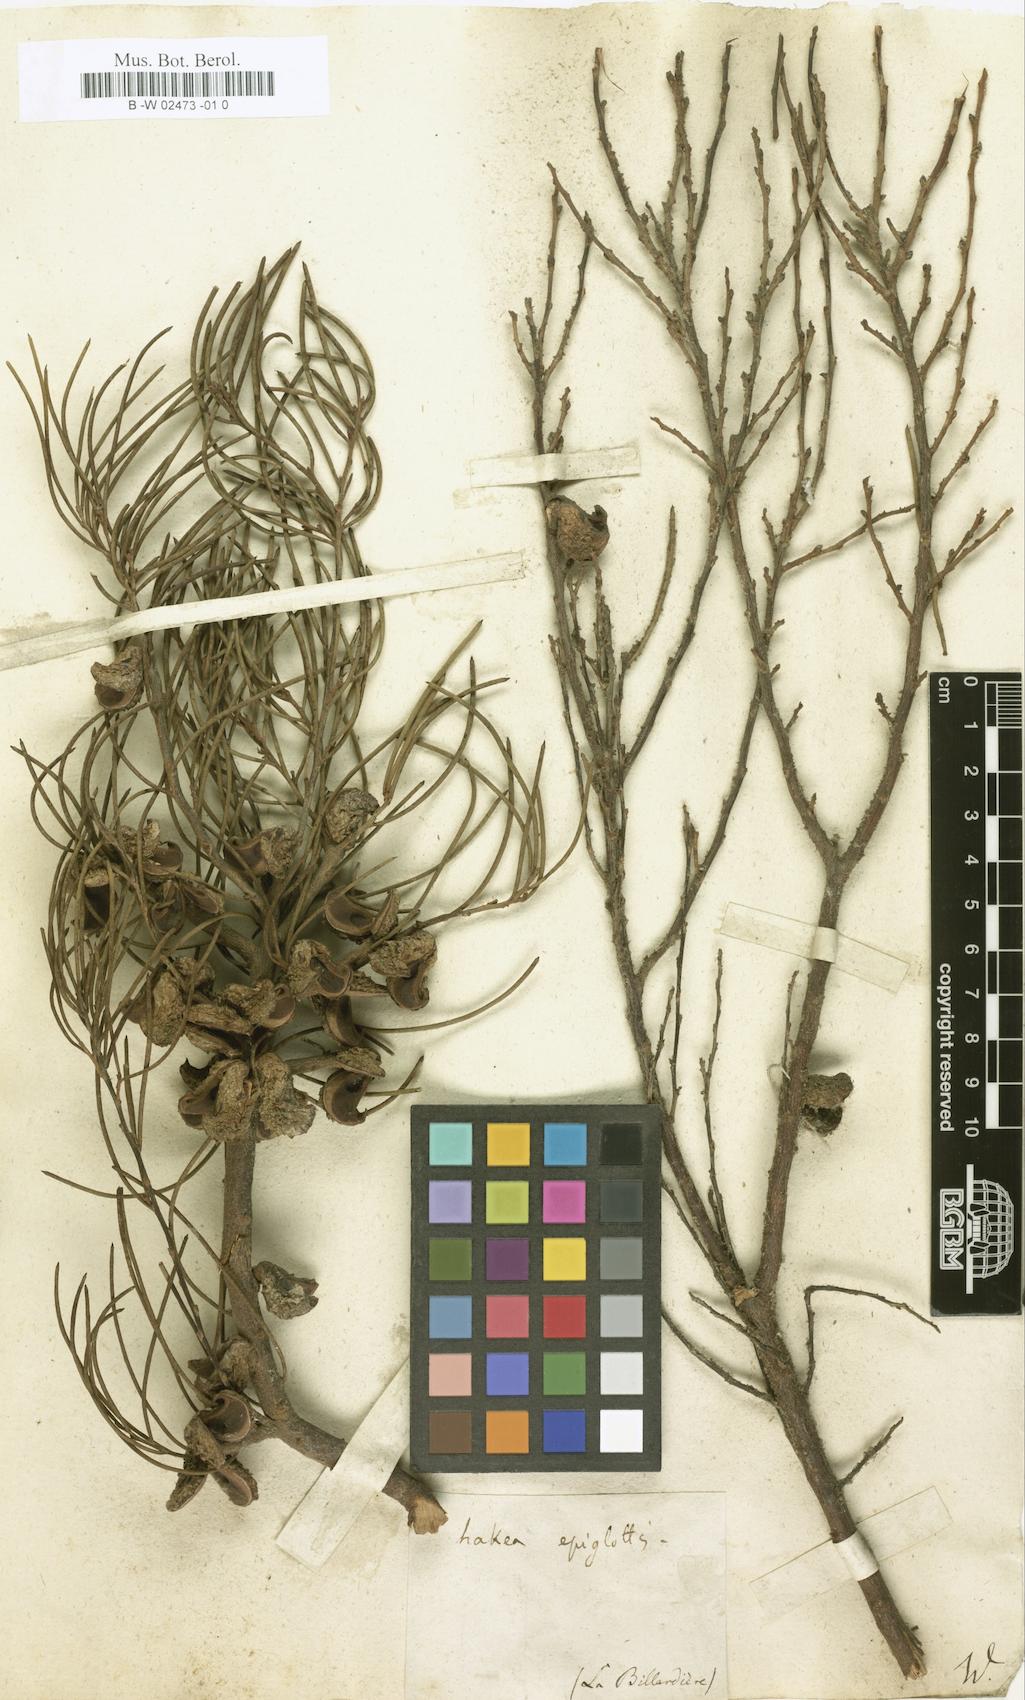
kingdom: Plantae
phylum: Tracheophyta
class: Magnoliopsida
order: Proteales
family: Proteaceae
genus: Hakea
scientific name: Hakea epiglottis
